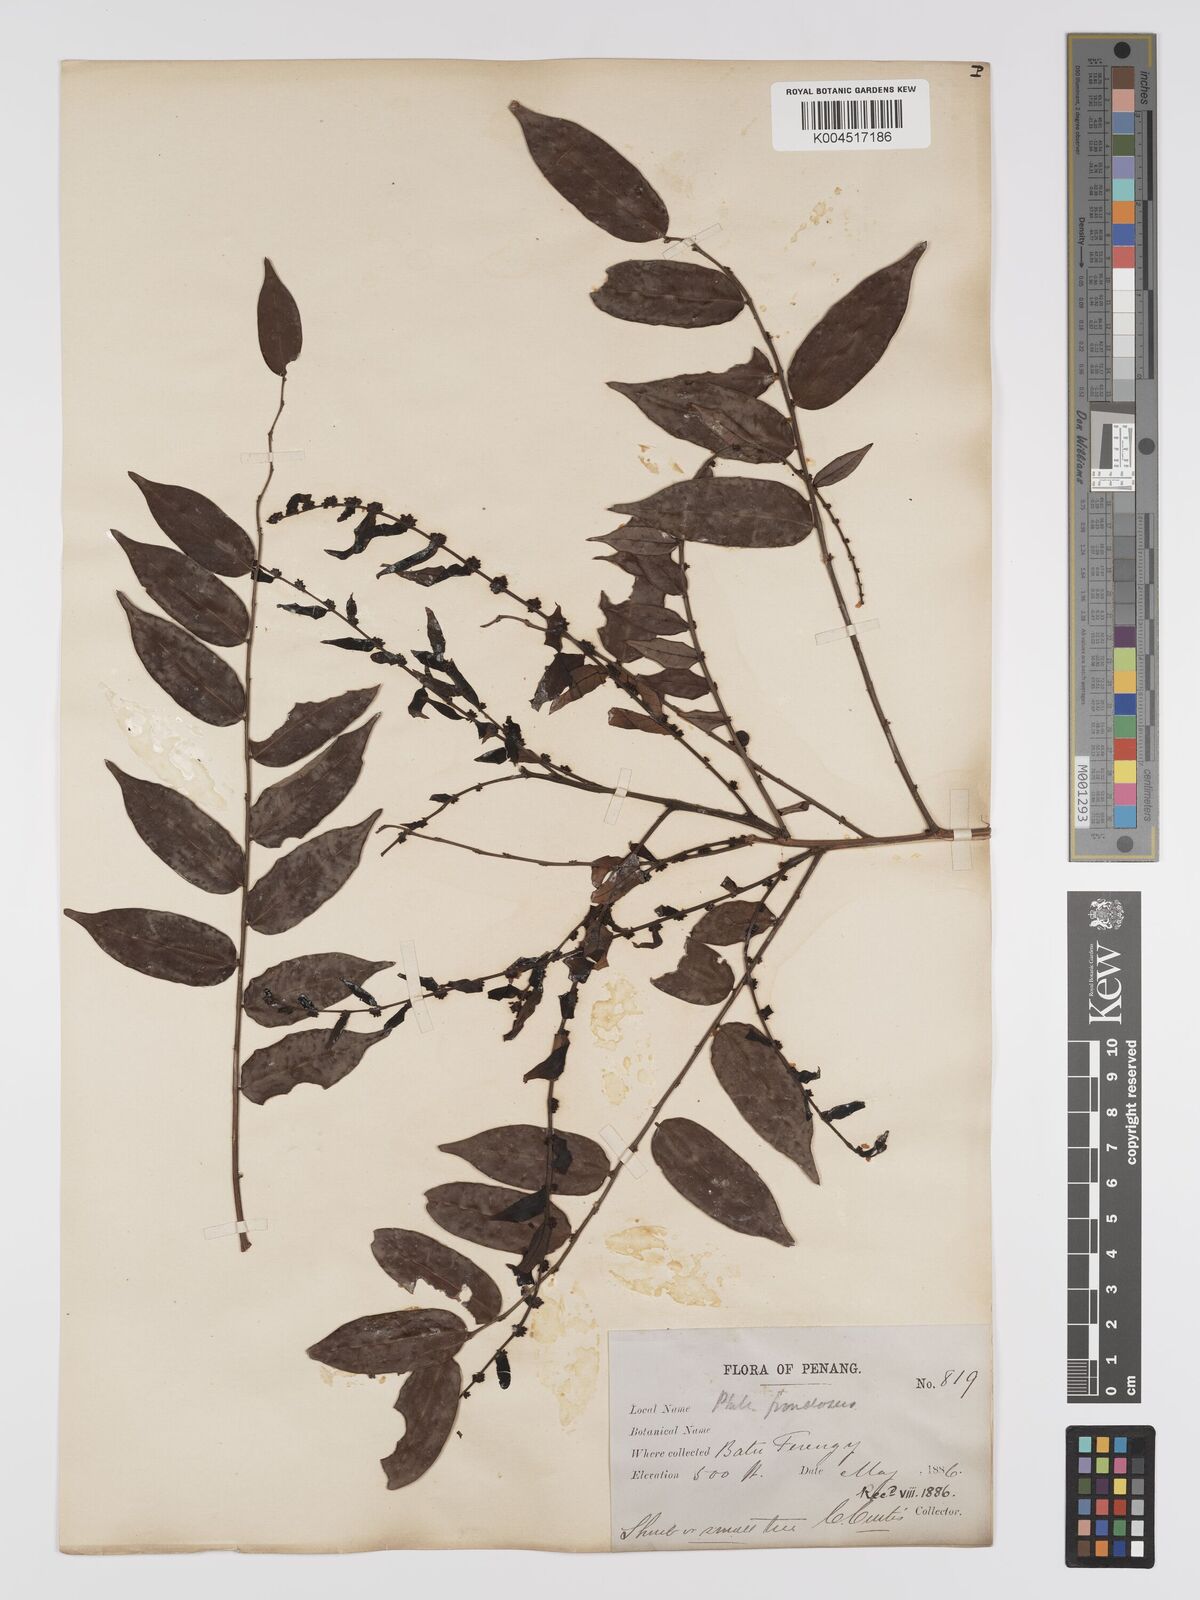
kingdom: Plantae
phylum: Tracheophyta
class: Magnoliopsida
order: Malpighiales
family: Phyllanthaceae
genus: Phyllanthus
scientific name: Phyllanthus
